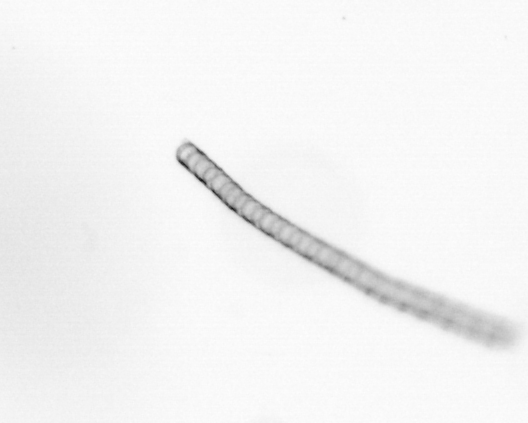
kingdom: Chromista
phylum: Ochrophyta
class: Bacillariophyceae
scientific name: Bacillariophyceae
